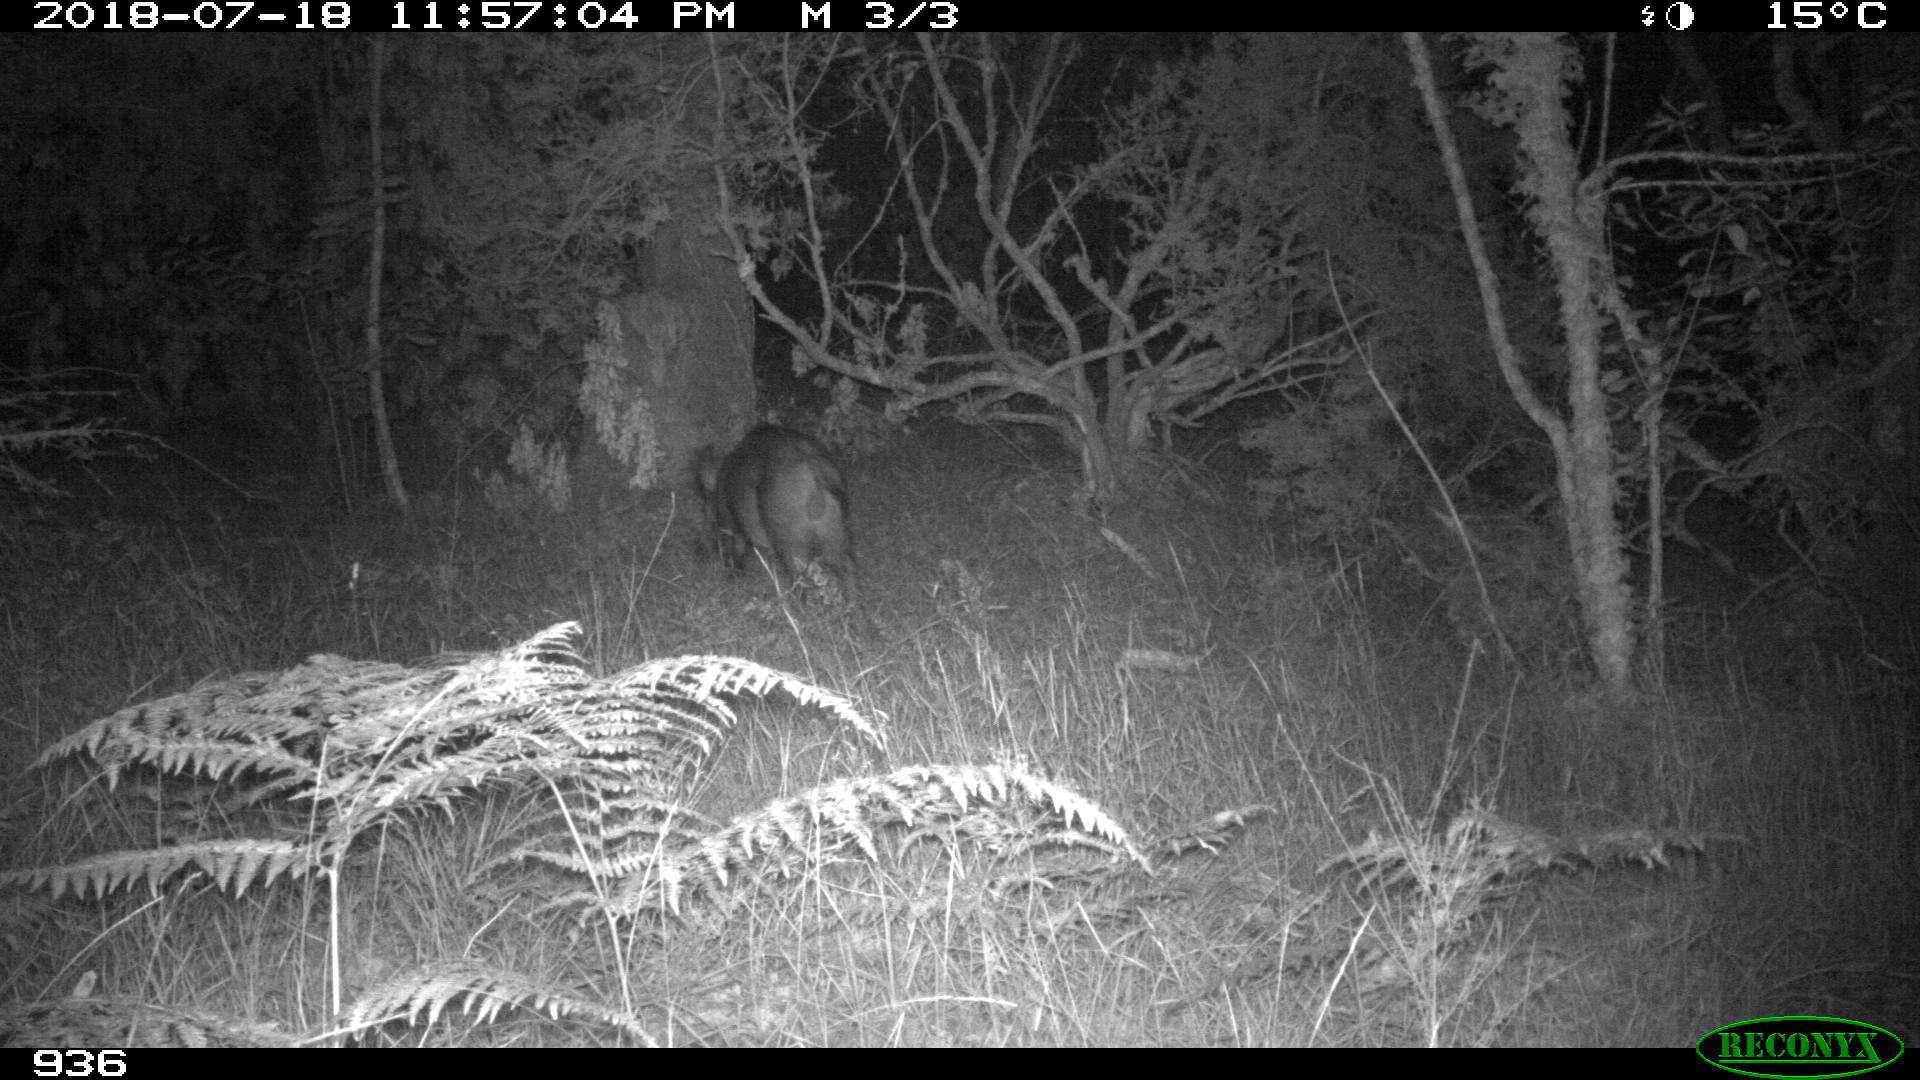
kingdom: Animalia
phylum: Chordata
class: Mammalia
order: Artiodactyla
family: Suidae
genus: Sus
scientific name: Sus scrofa
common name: Wild boar
